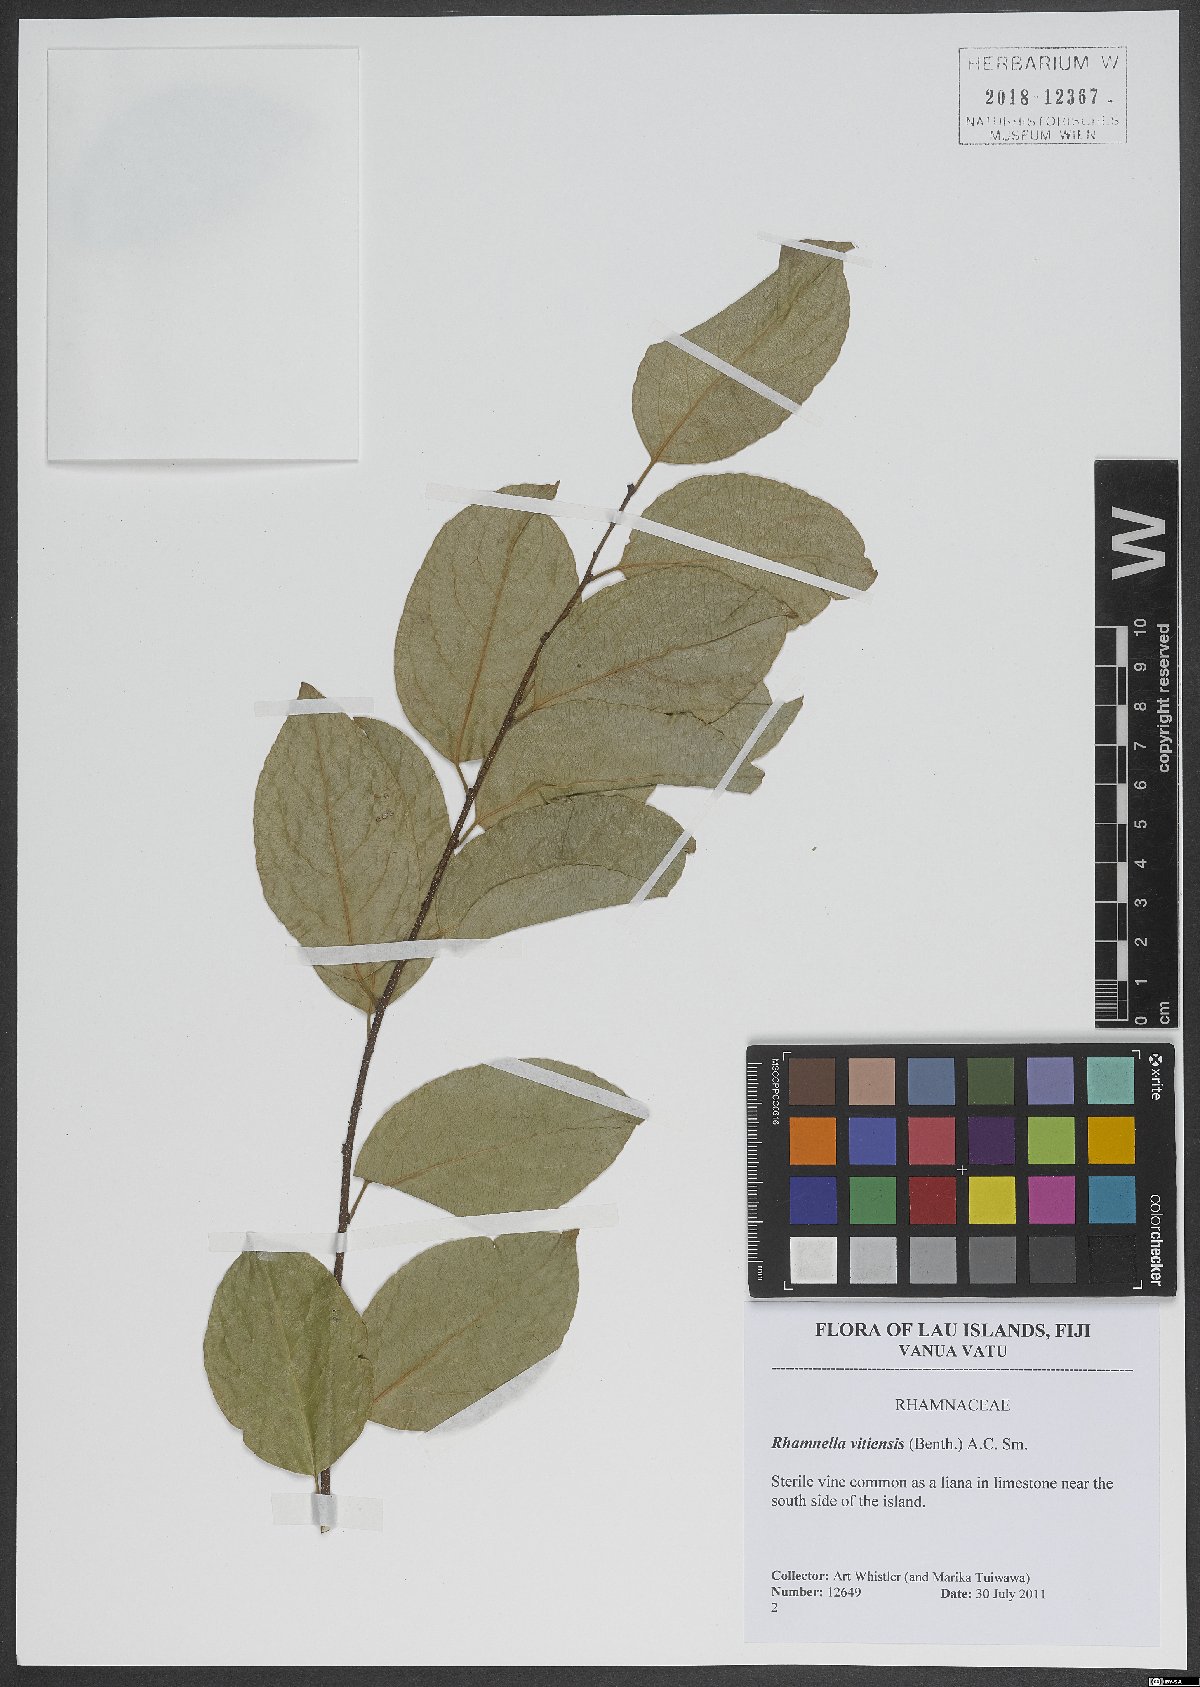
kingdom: Plantae
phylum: Tracheophyta
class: Magnoliopsida
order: Rosales
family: Rhamnaceae
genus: Dallachya
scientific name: Dallachya vitiensis
